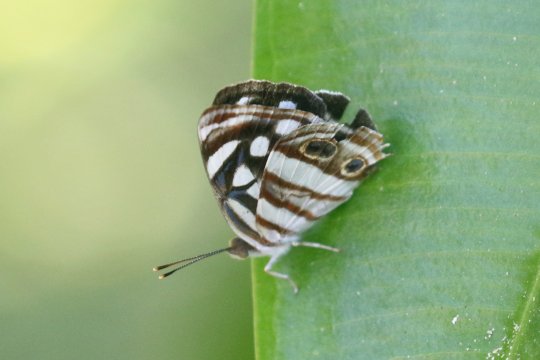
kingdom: Animalia
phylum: Arthropoda
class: Insecta
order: Lepidoptera
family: Nymphalidae
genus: Dynamine
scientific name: Dynamine mylitta
